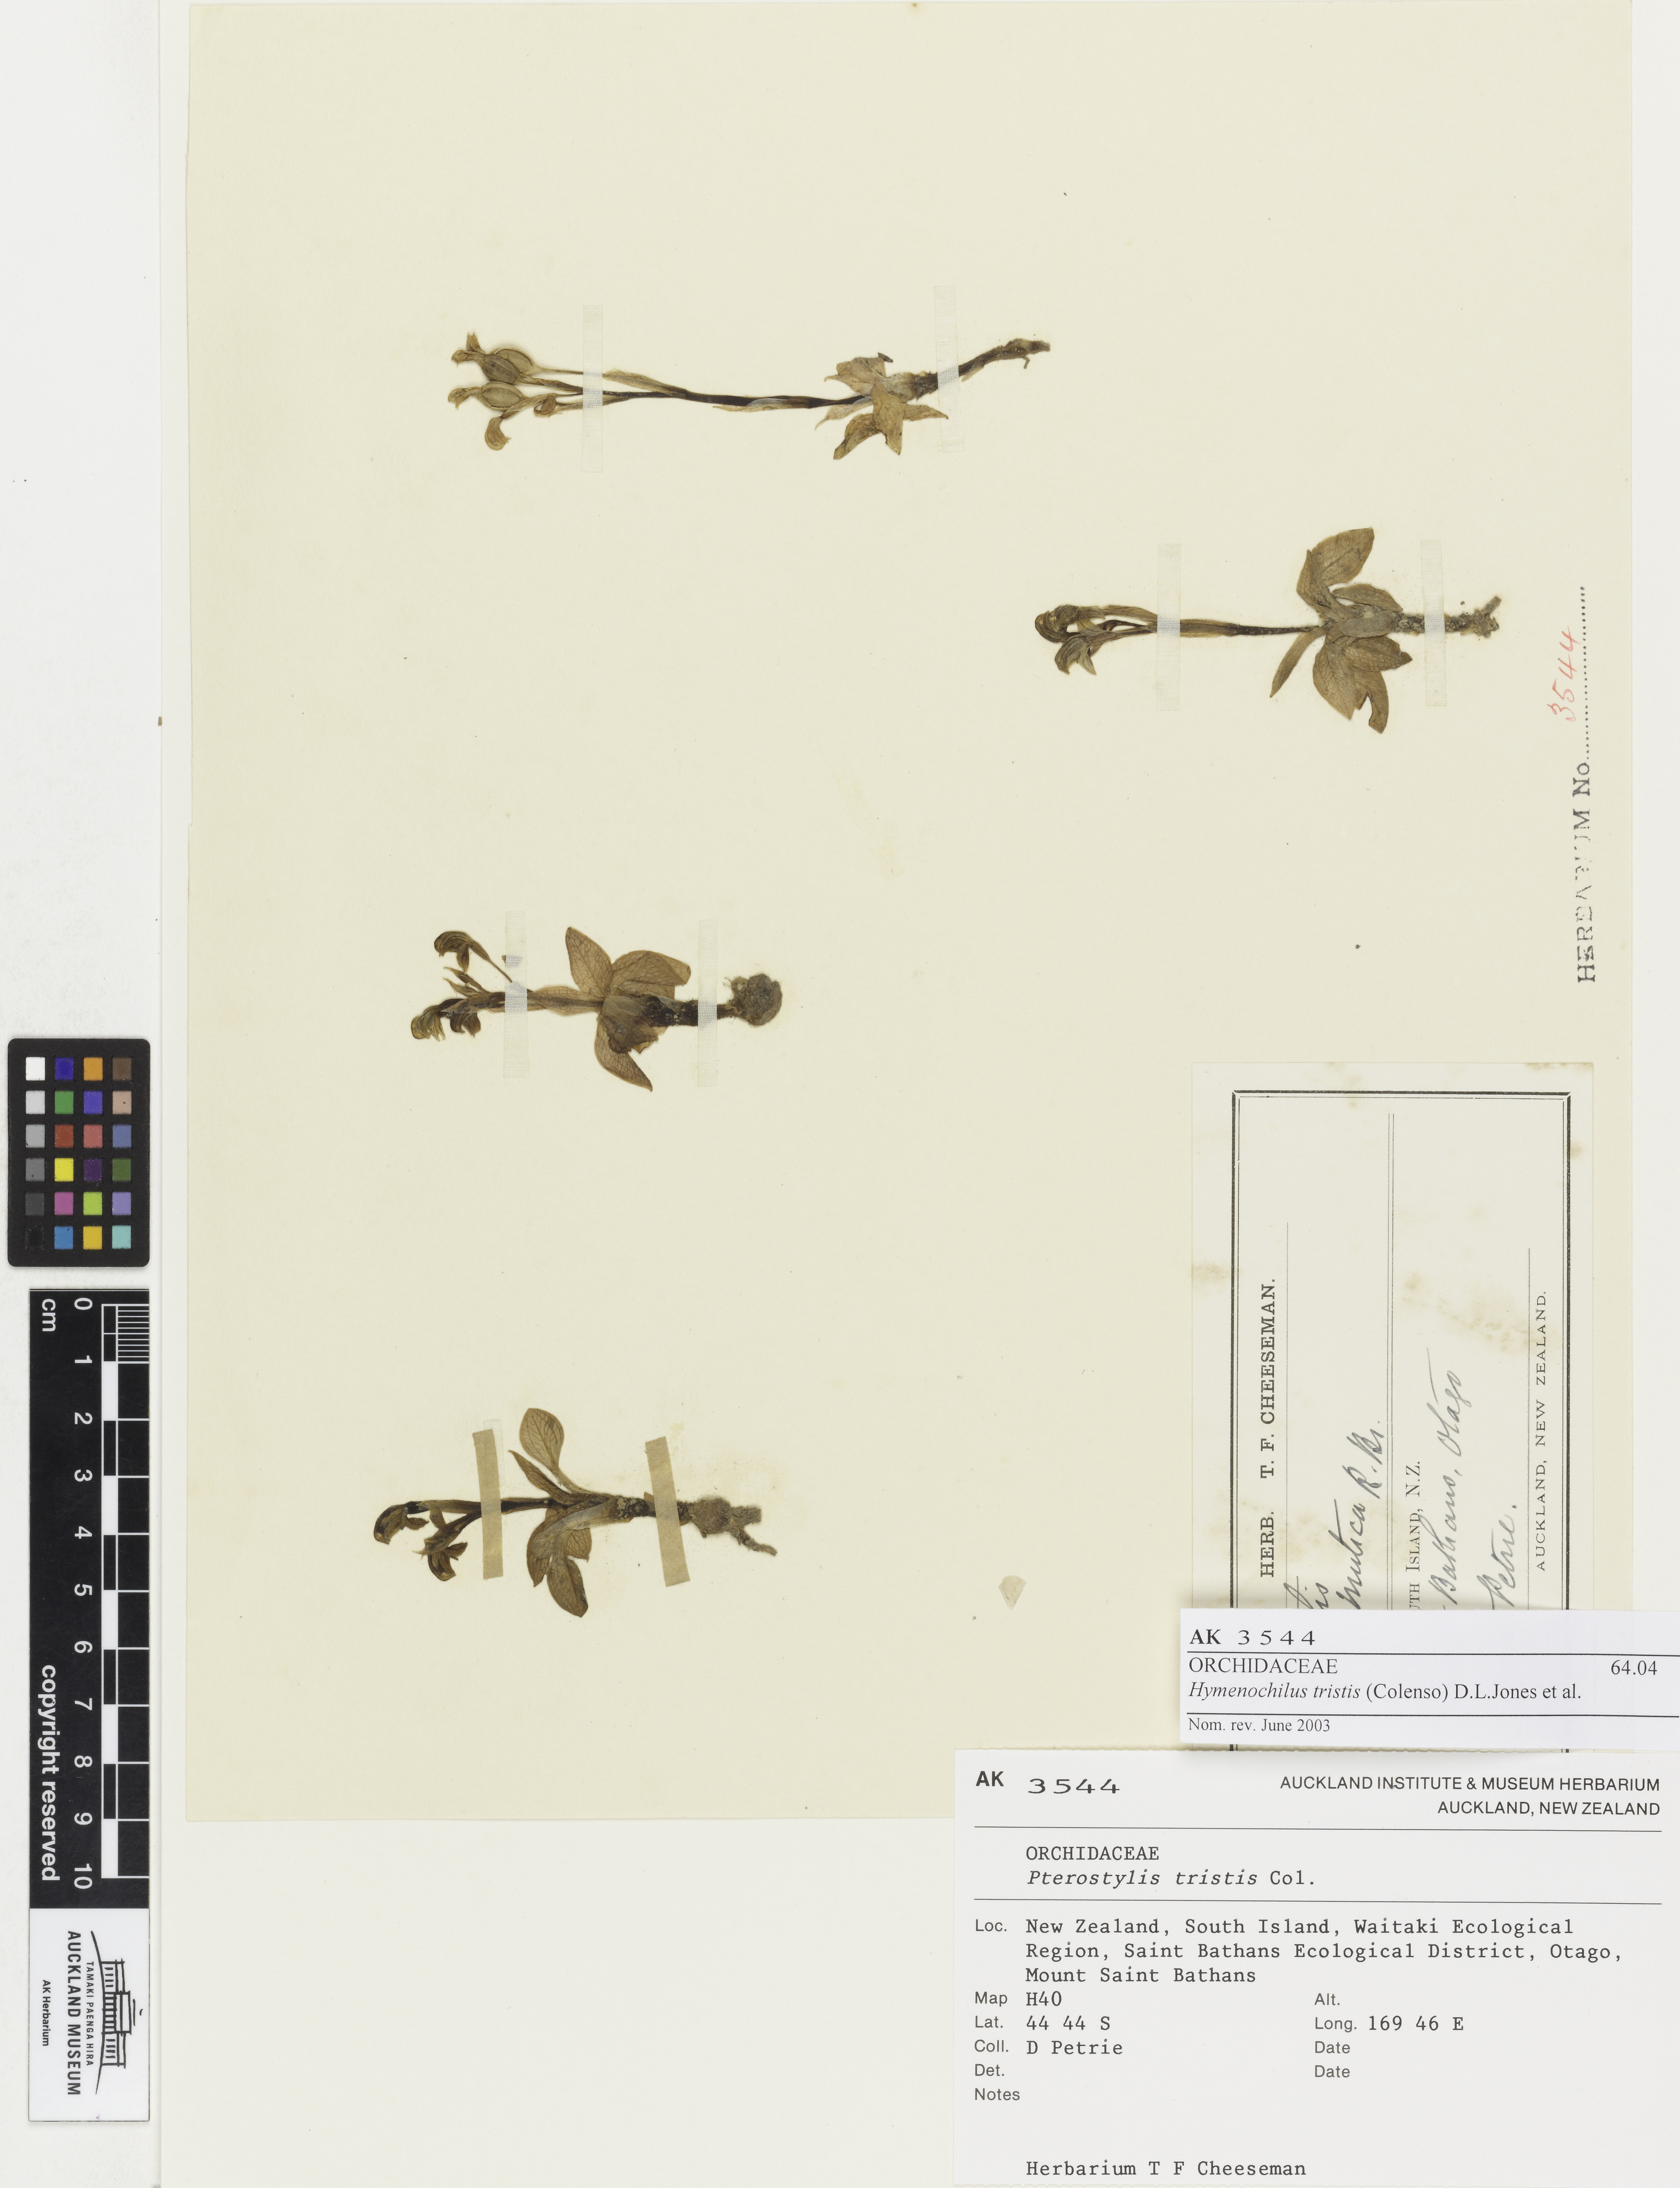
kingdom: Plantae
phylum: Tracheophyta
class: Liliopsida
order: Asparagales
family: Orchidaceae
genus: Pterostylis
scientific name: Pterostylis tristis
